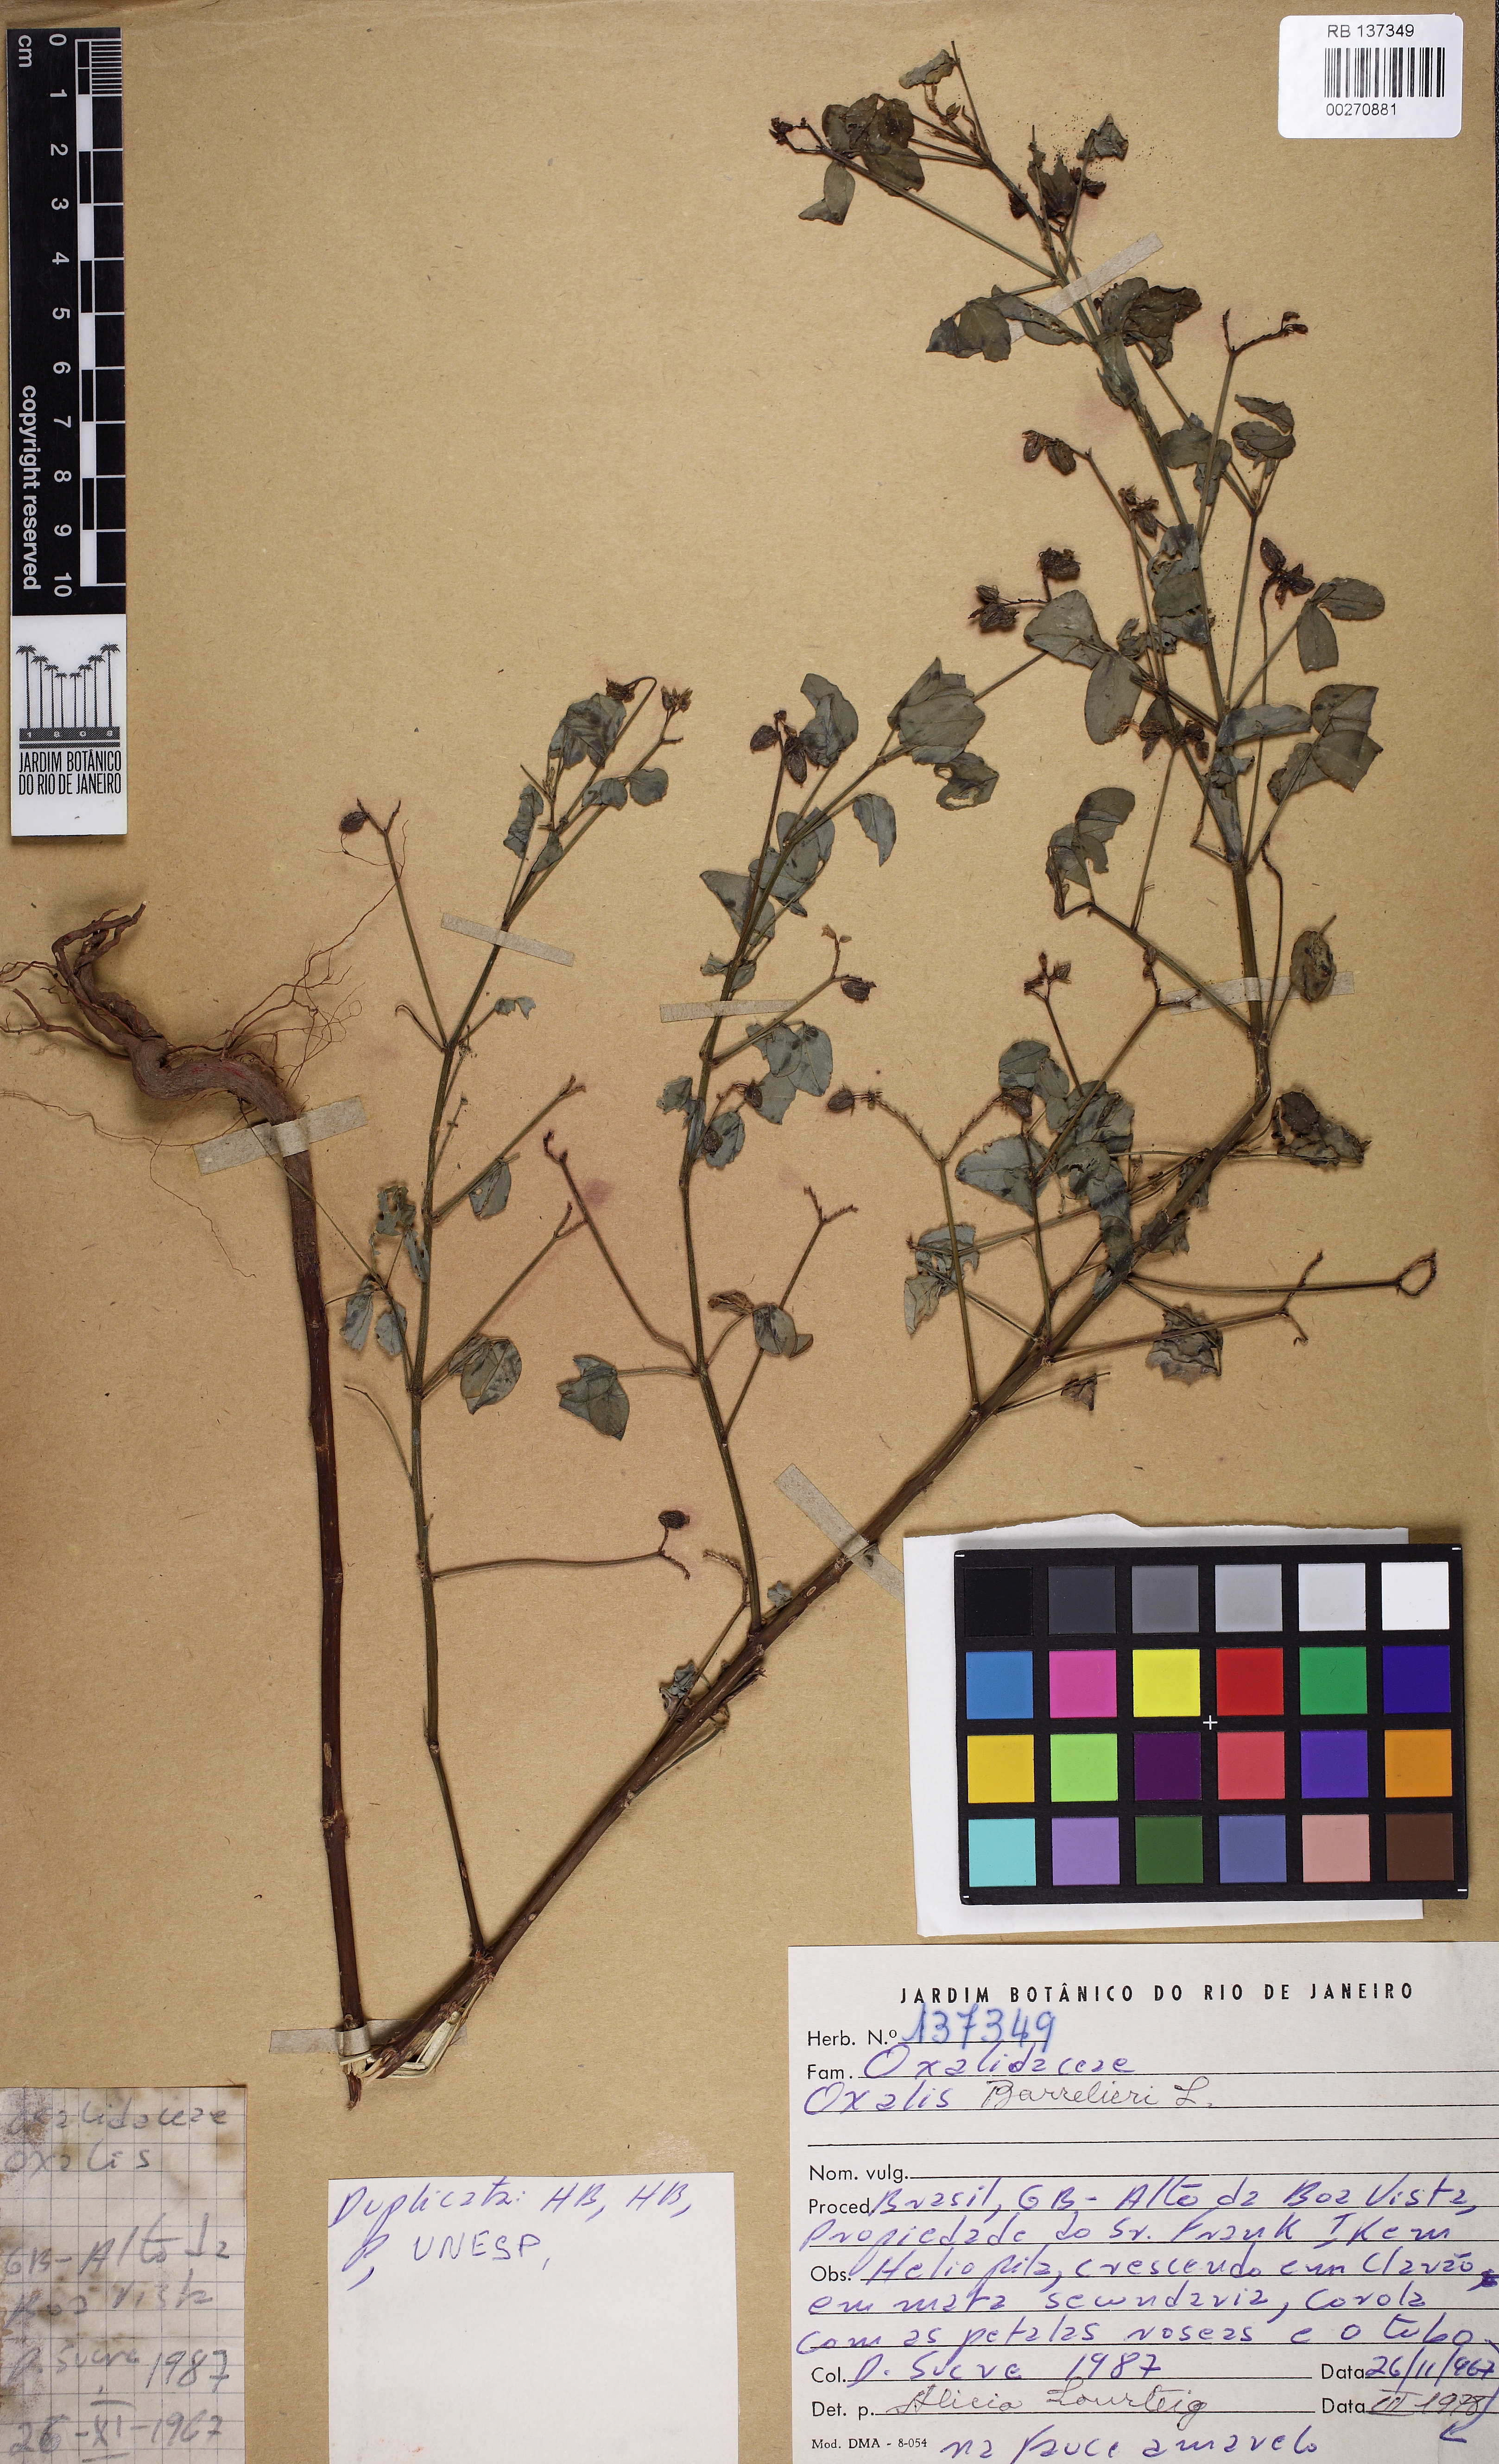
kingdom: Plantae
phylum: Tracheophyta
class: Magnoliopsida
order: Oxalidales
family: Oxalidaceae
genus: Oxalis
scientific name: Oxalis barrelieri
